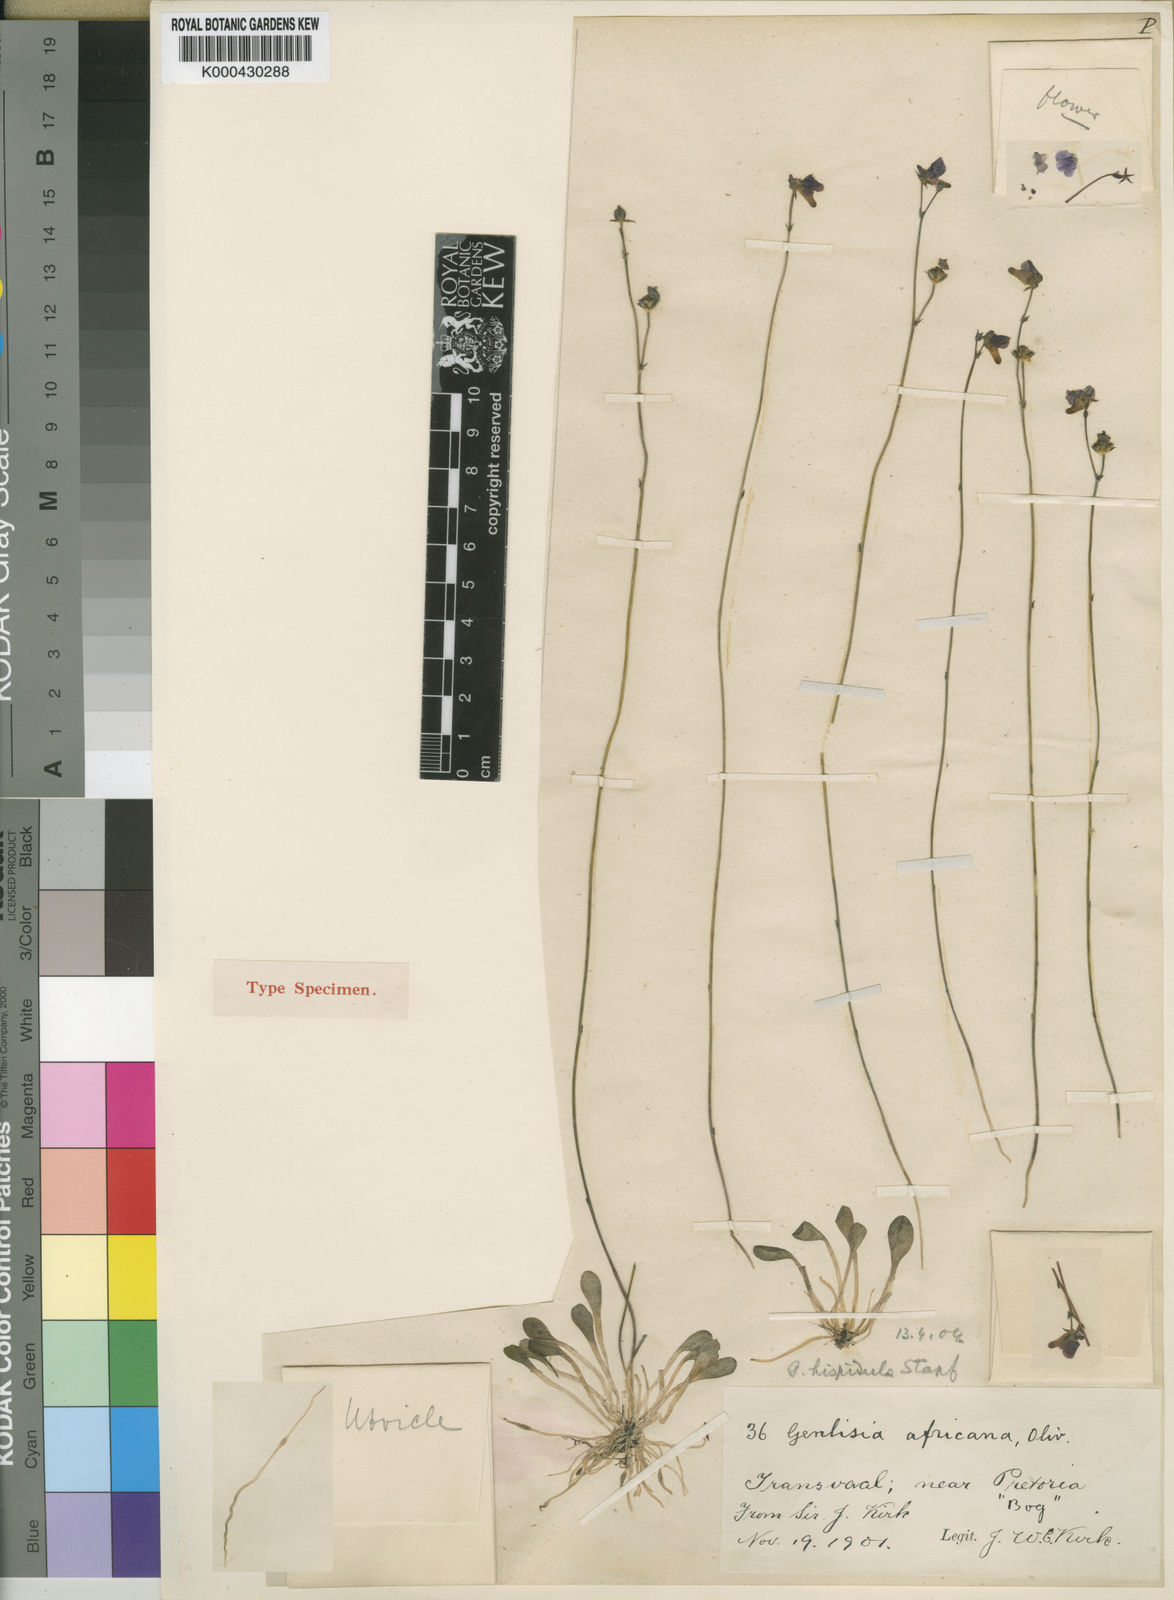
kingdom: Plantae
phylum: Tracheophyta
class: Magnoliopsida
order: Lamiales
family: Lentibulariaceae
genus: Genlisea
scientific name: Genlisea hispidula
